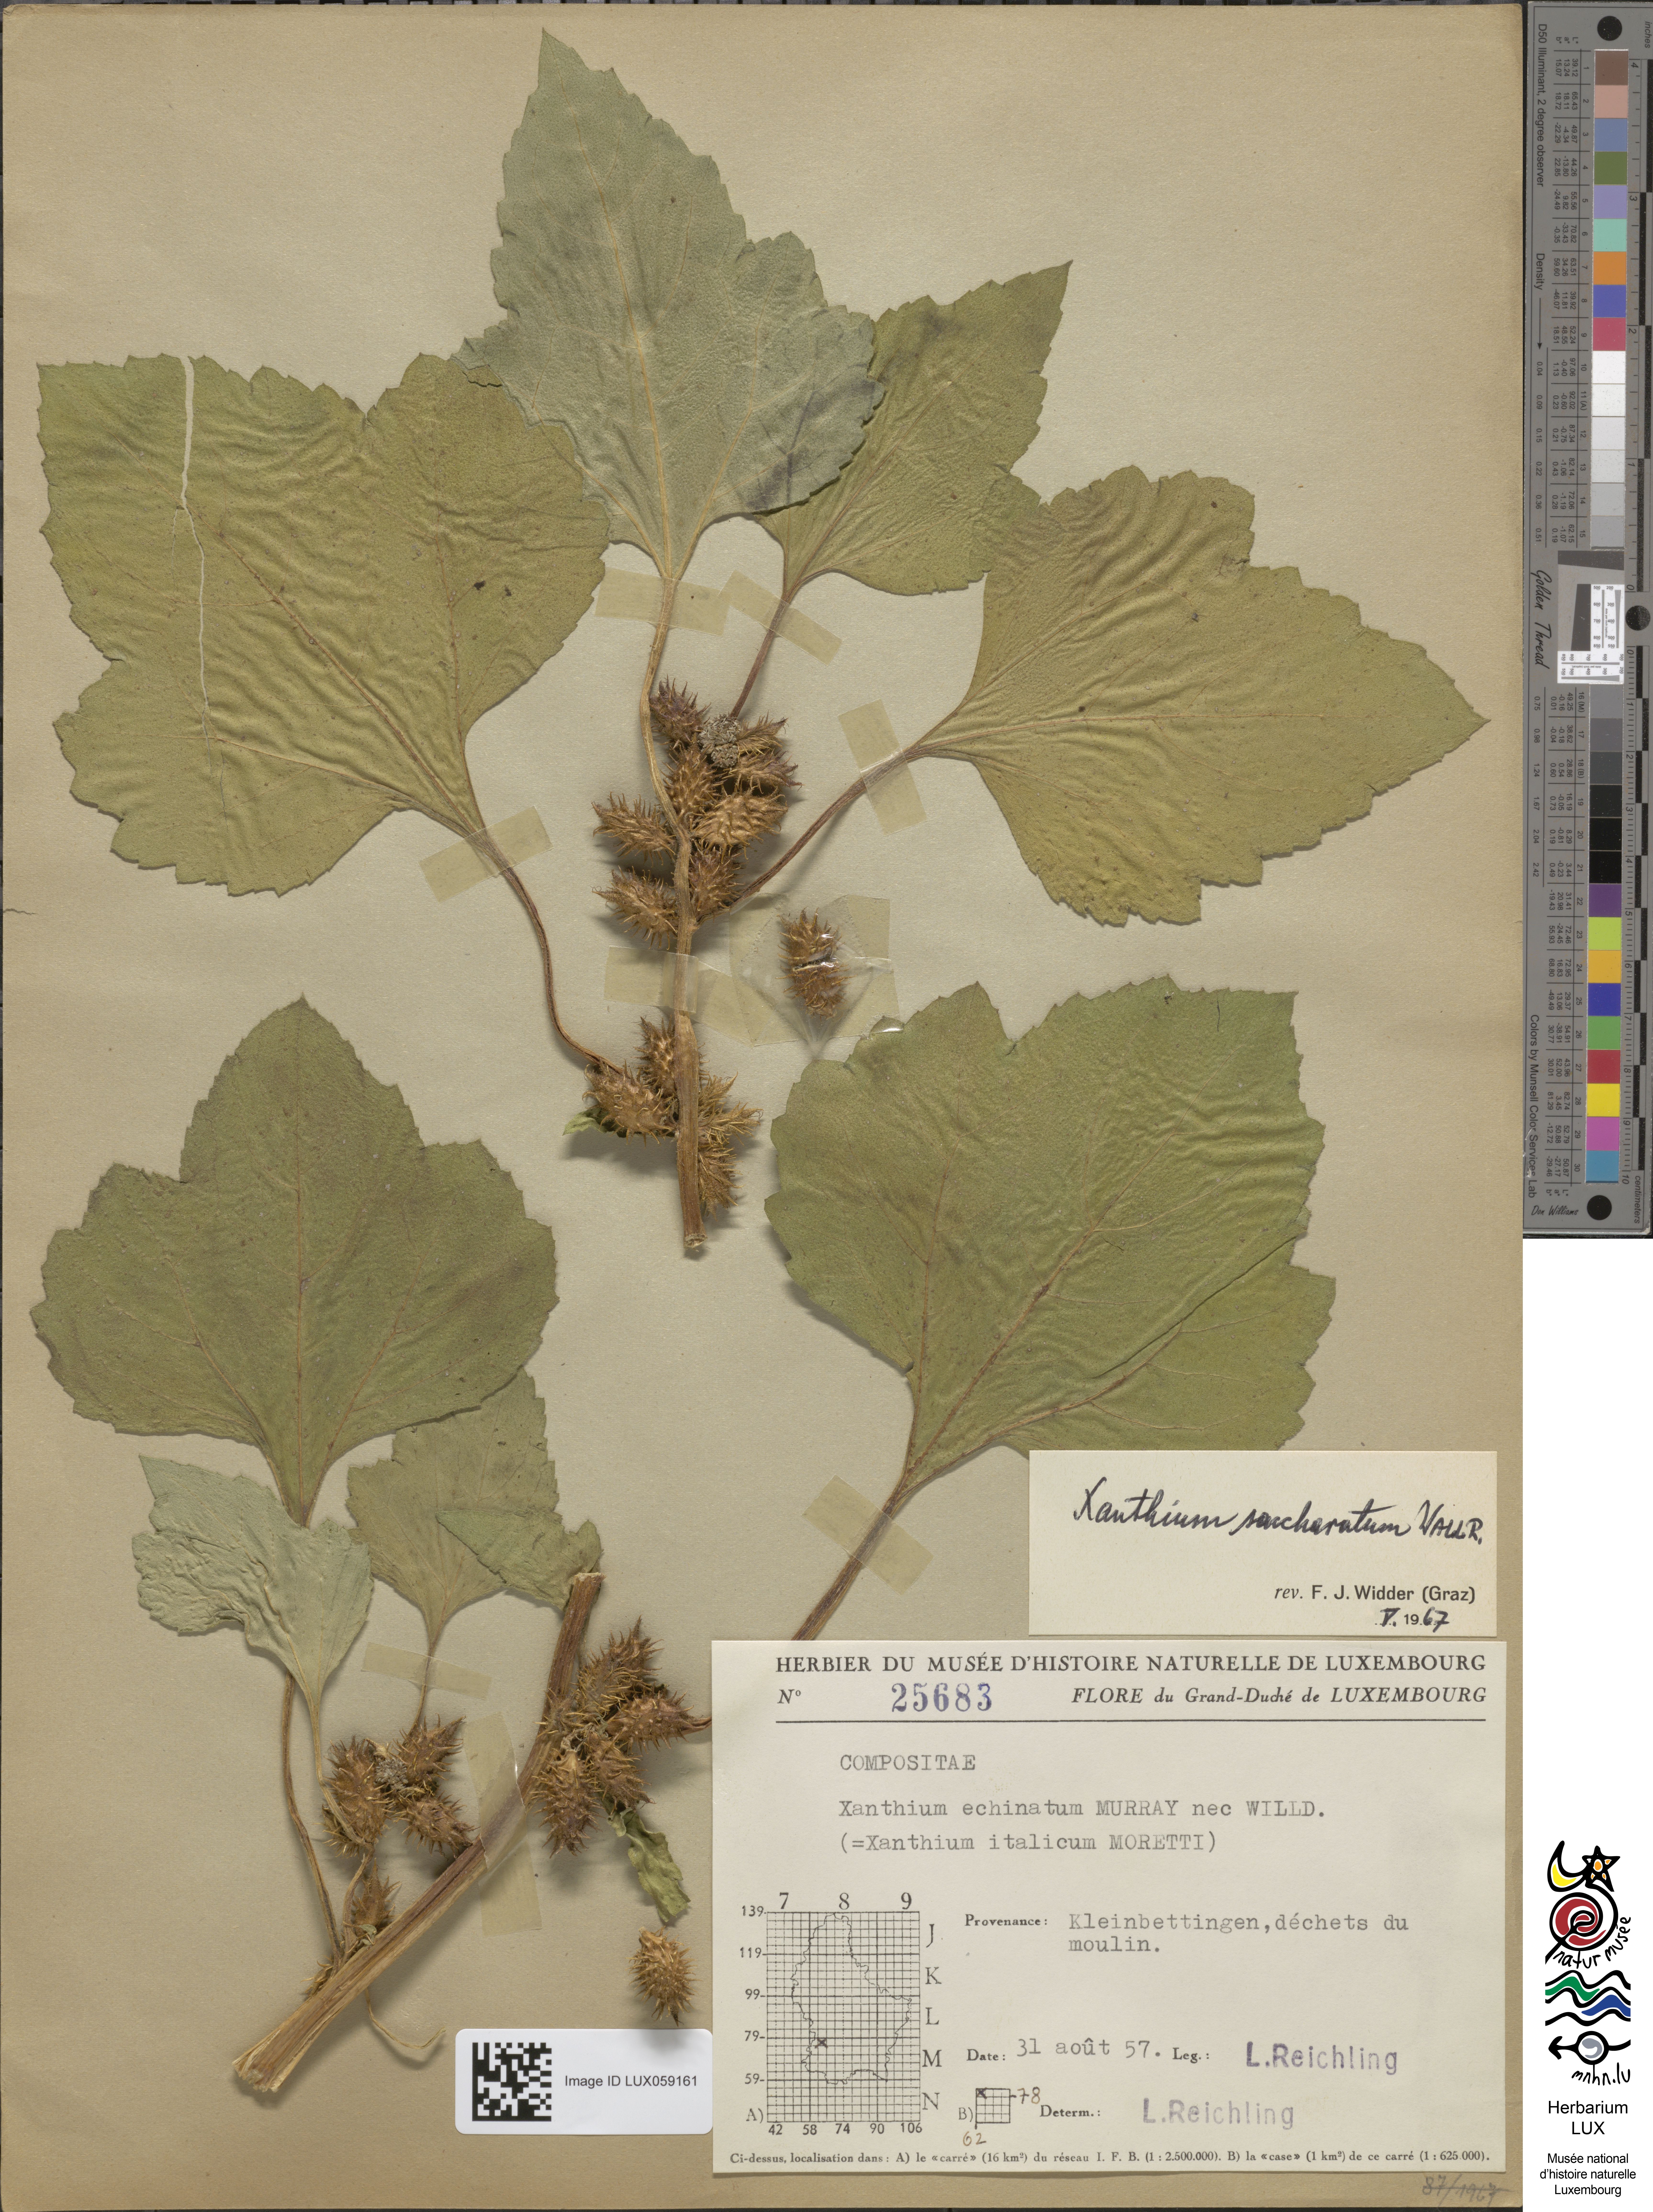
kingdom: Plantae
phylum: Tracheophyta
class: Magnoliopsida
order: Asterales
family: Asteraceae
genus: Xanthium
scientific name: Xanthium orientale
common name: Californian burr
